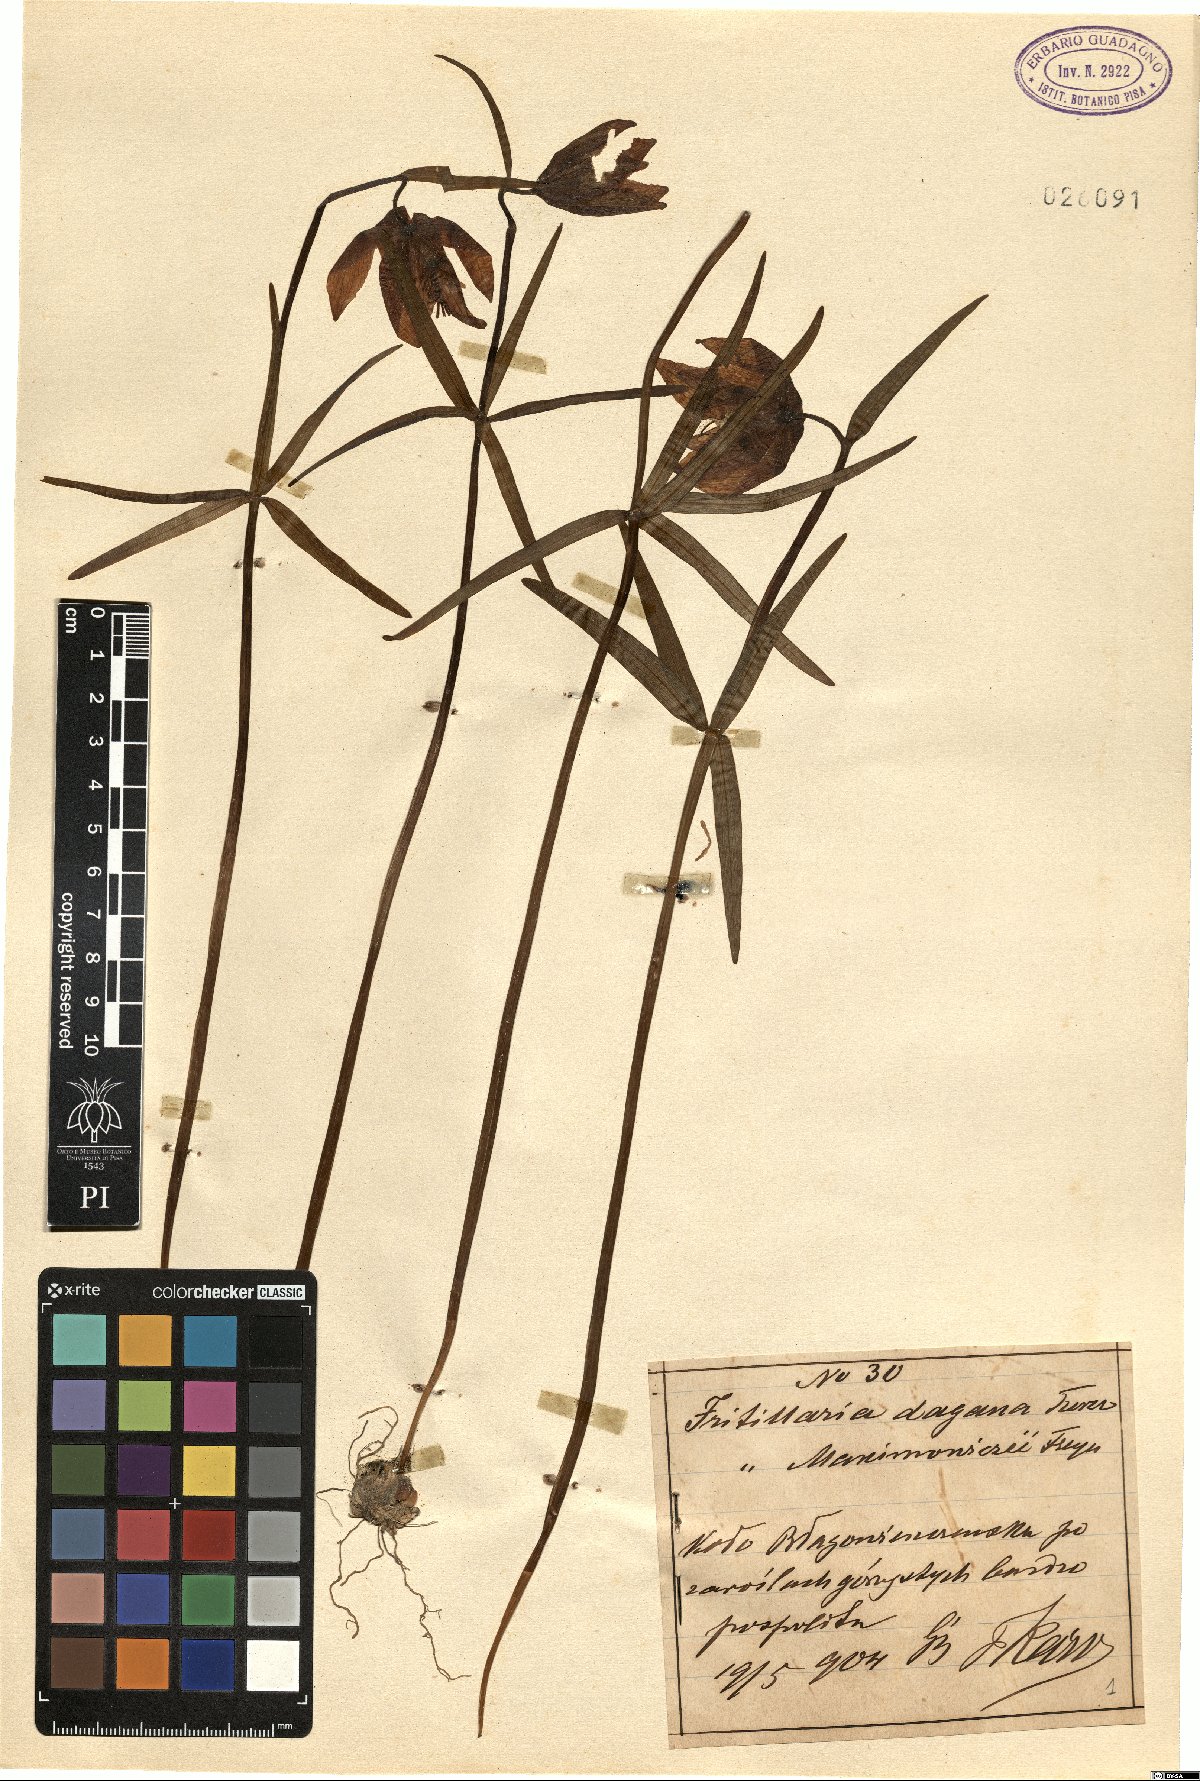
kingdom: Plantae
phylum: Tracheophyta
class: Liliopsida
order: Liliales
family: Liliaceae
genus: Fritillaria
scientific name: Fritillaria dagana
